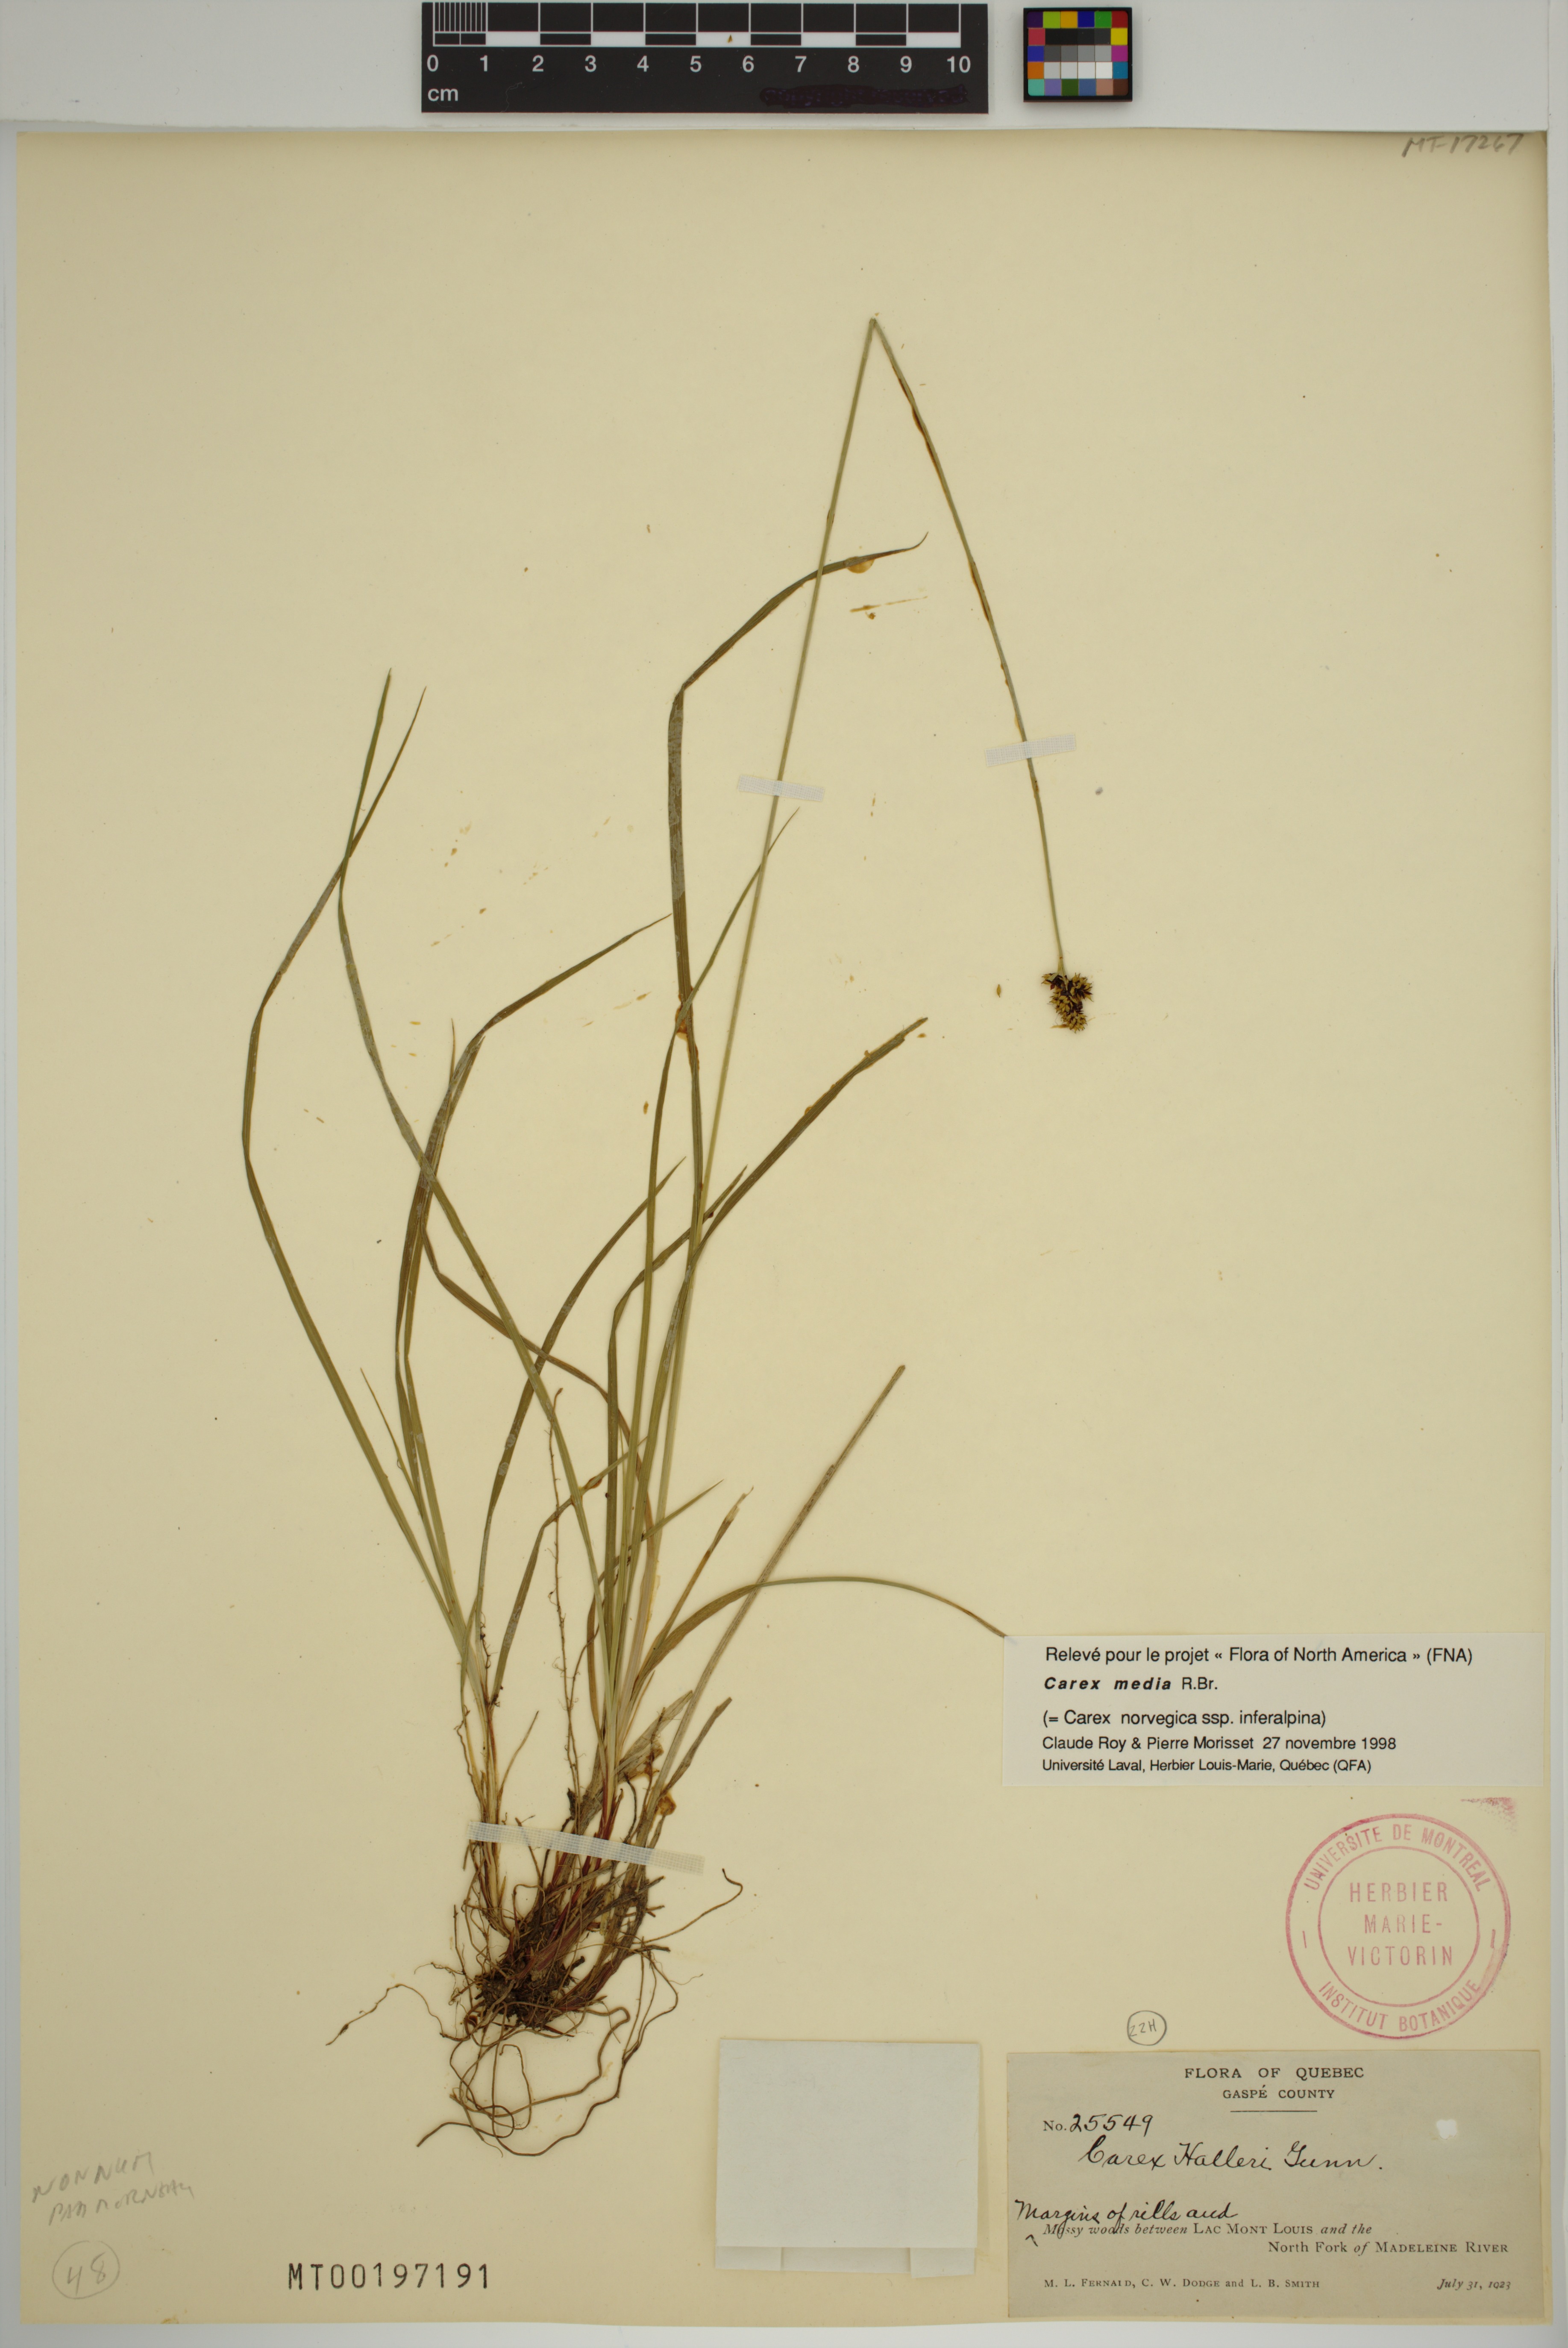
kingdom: Plantae
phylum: Tracheophyta
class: Liliopsida
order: Poales
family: Cyperaceae
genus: Carex
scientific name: Carex media
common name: Alpine sedge
